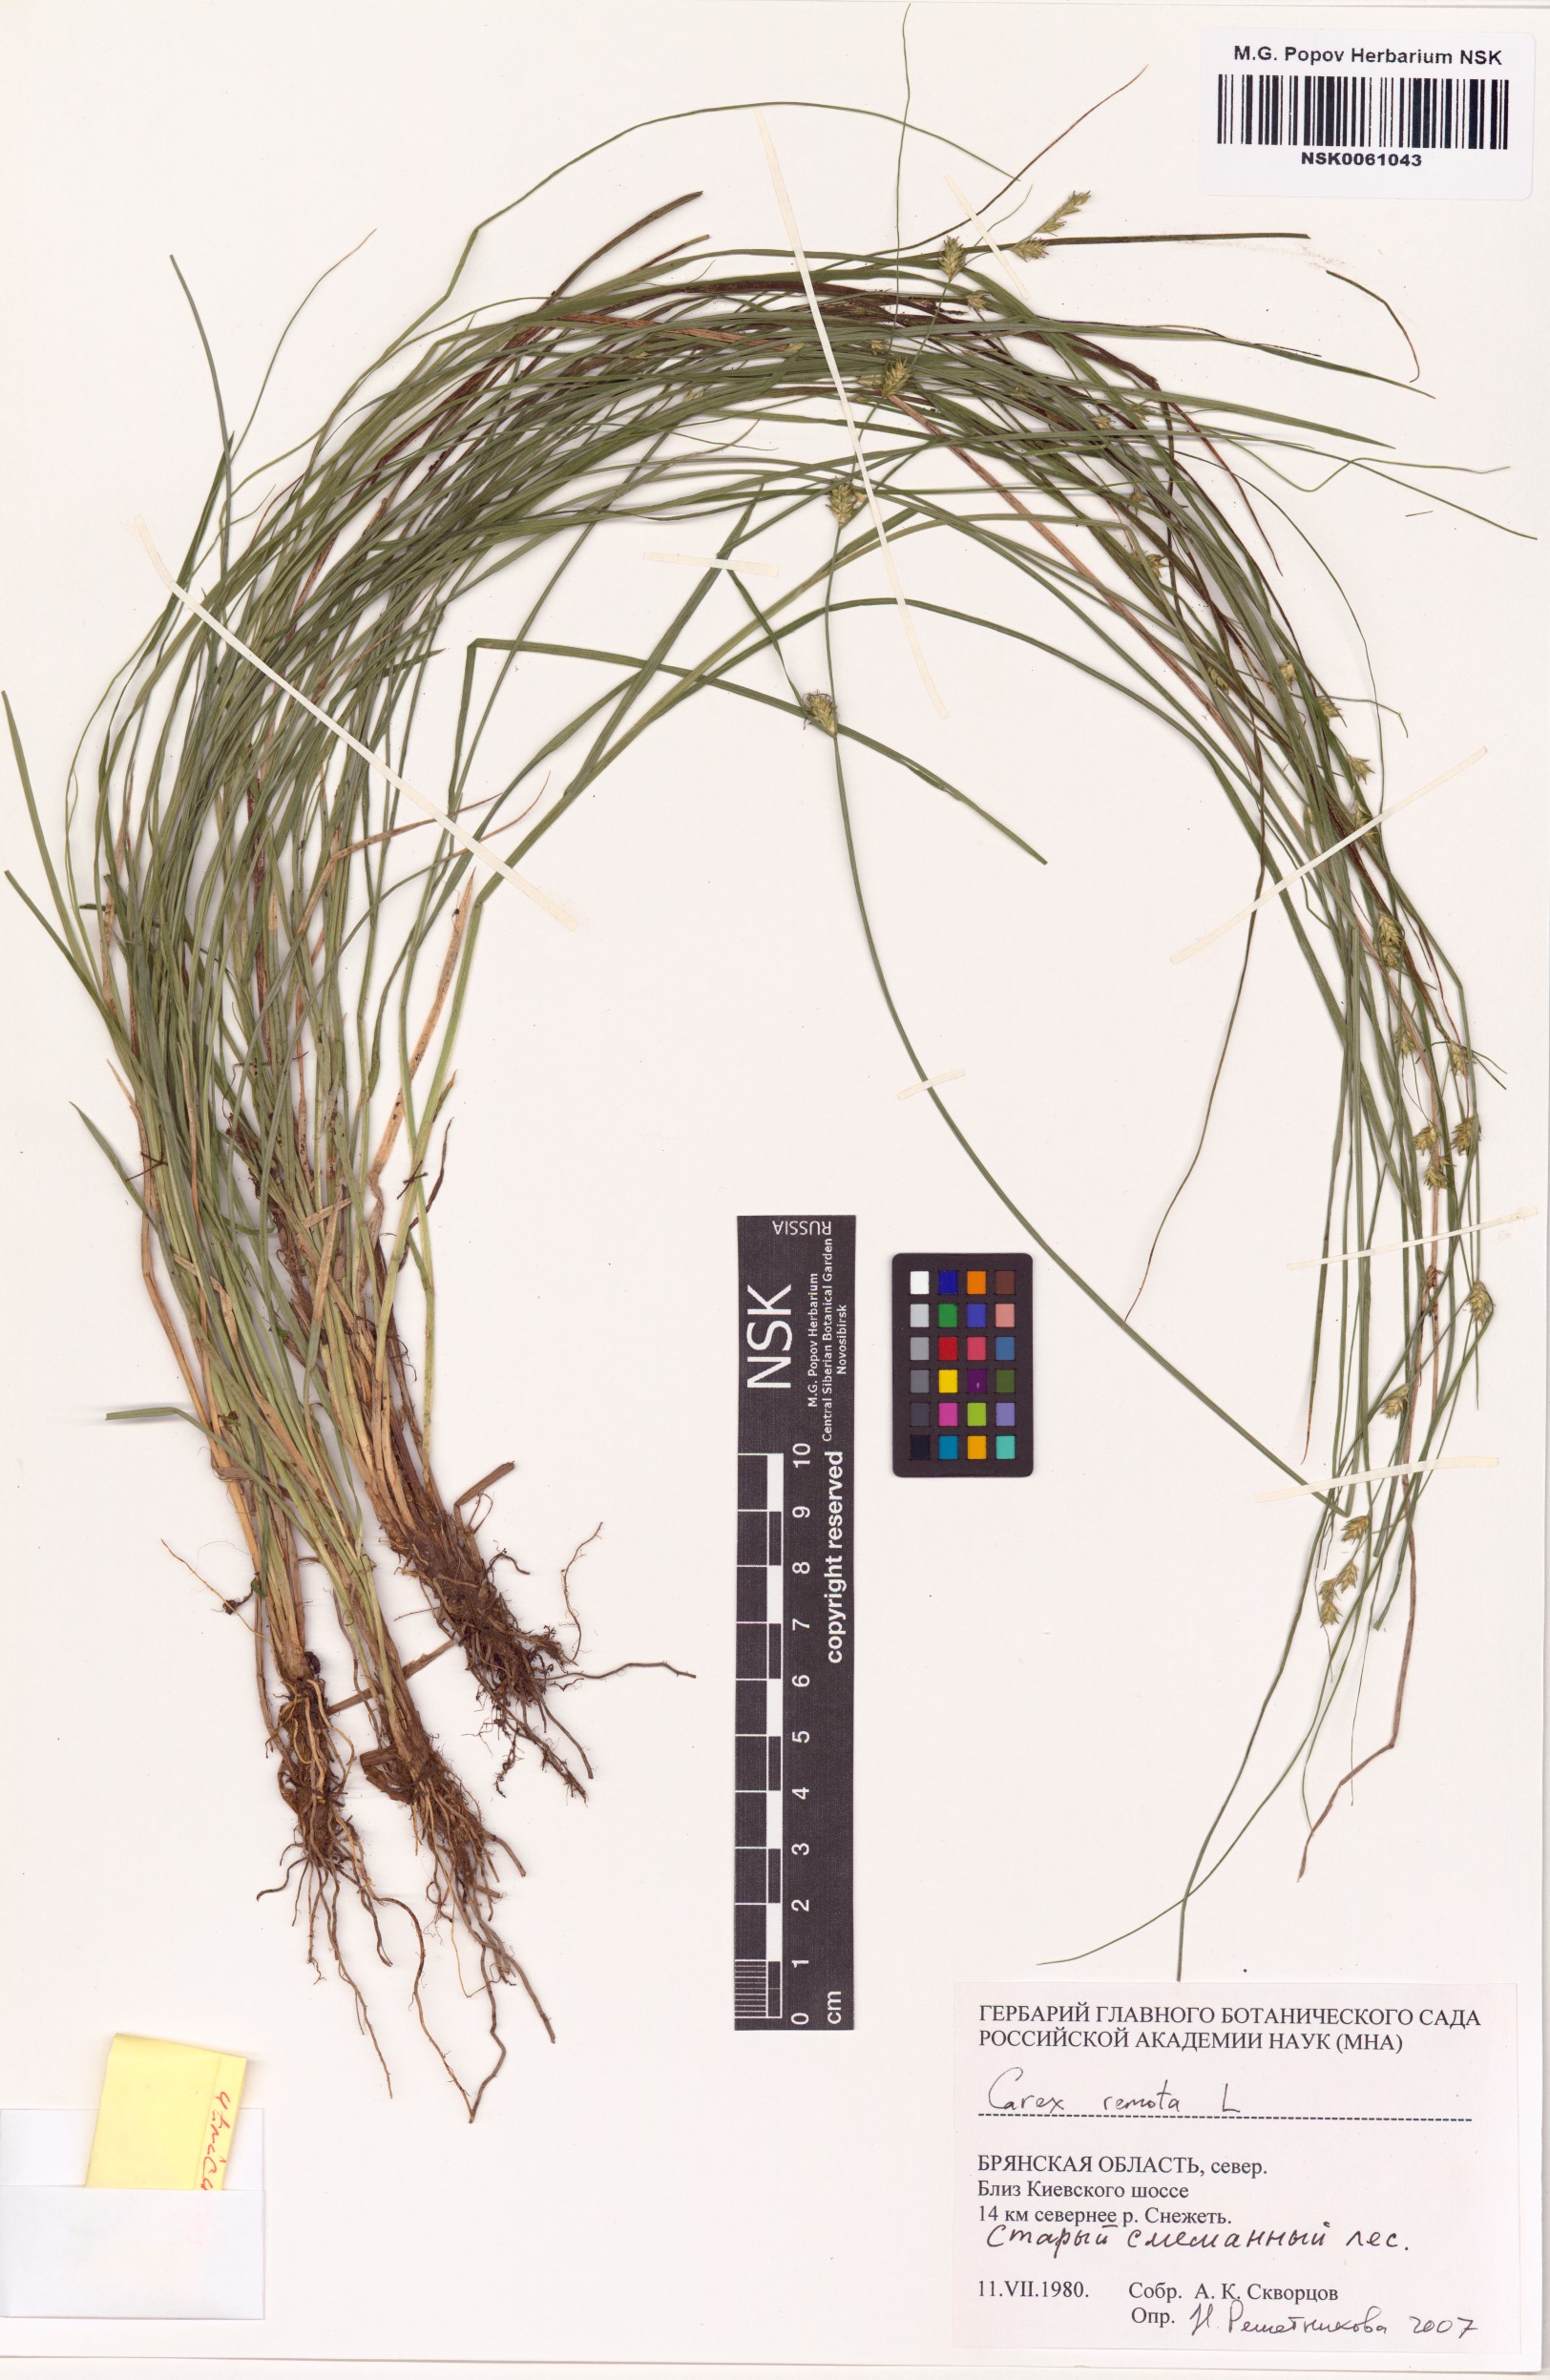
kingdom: Plantae
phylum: Tracheophyta
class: Liliopsida
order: Poales
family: Cyperaceae
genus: Carex
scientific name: Carex remota
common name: Remote sedge
